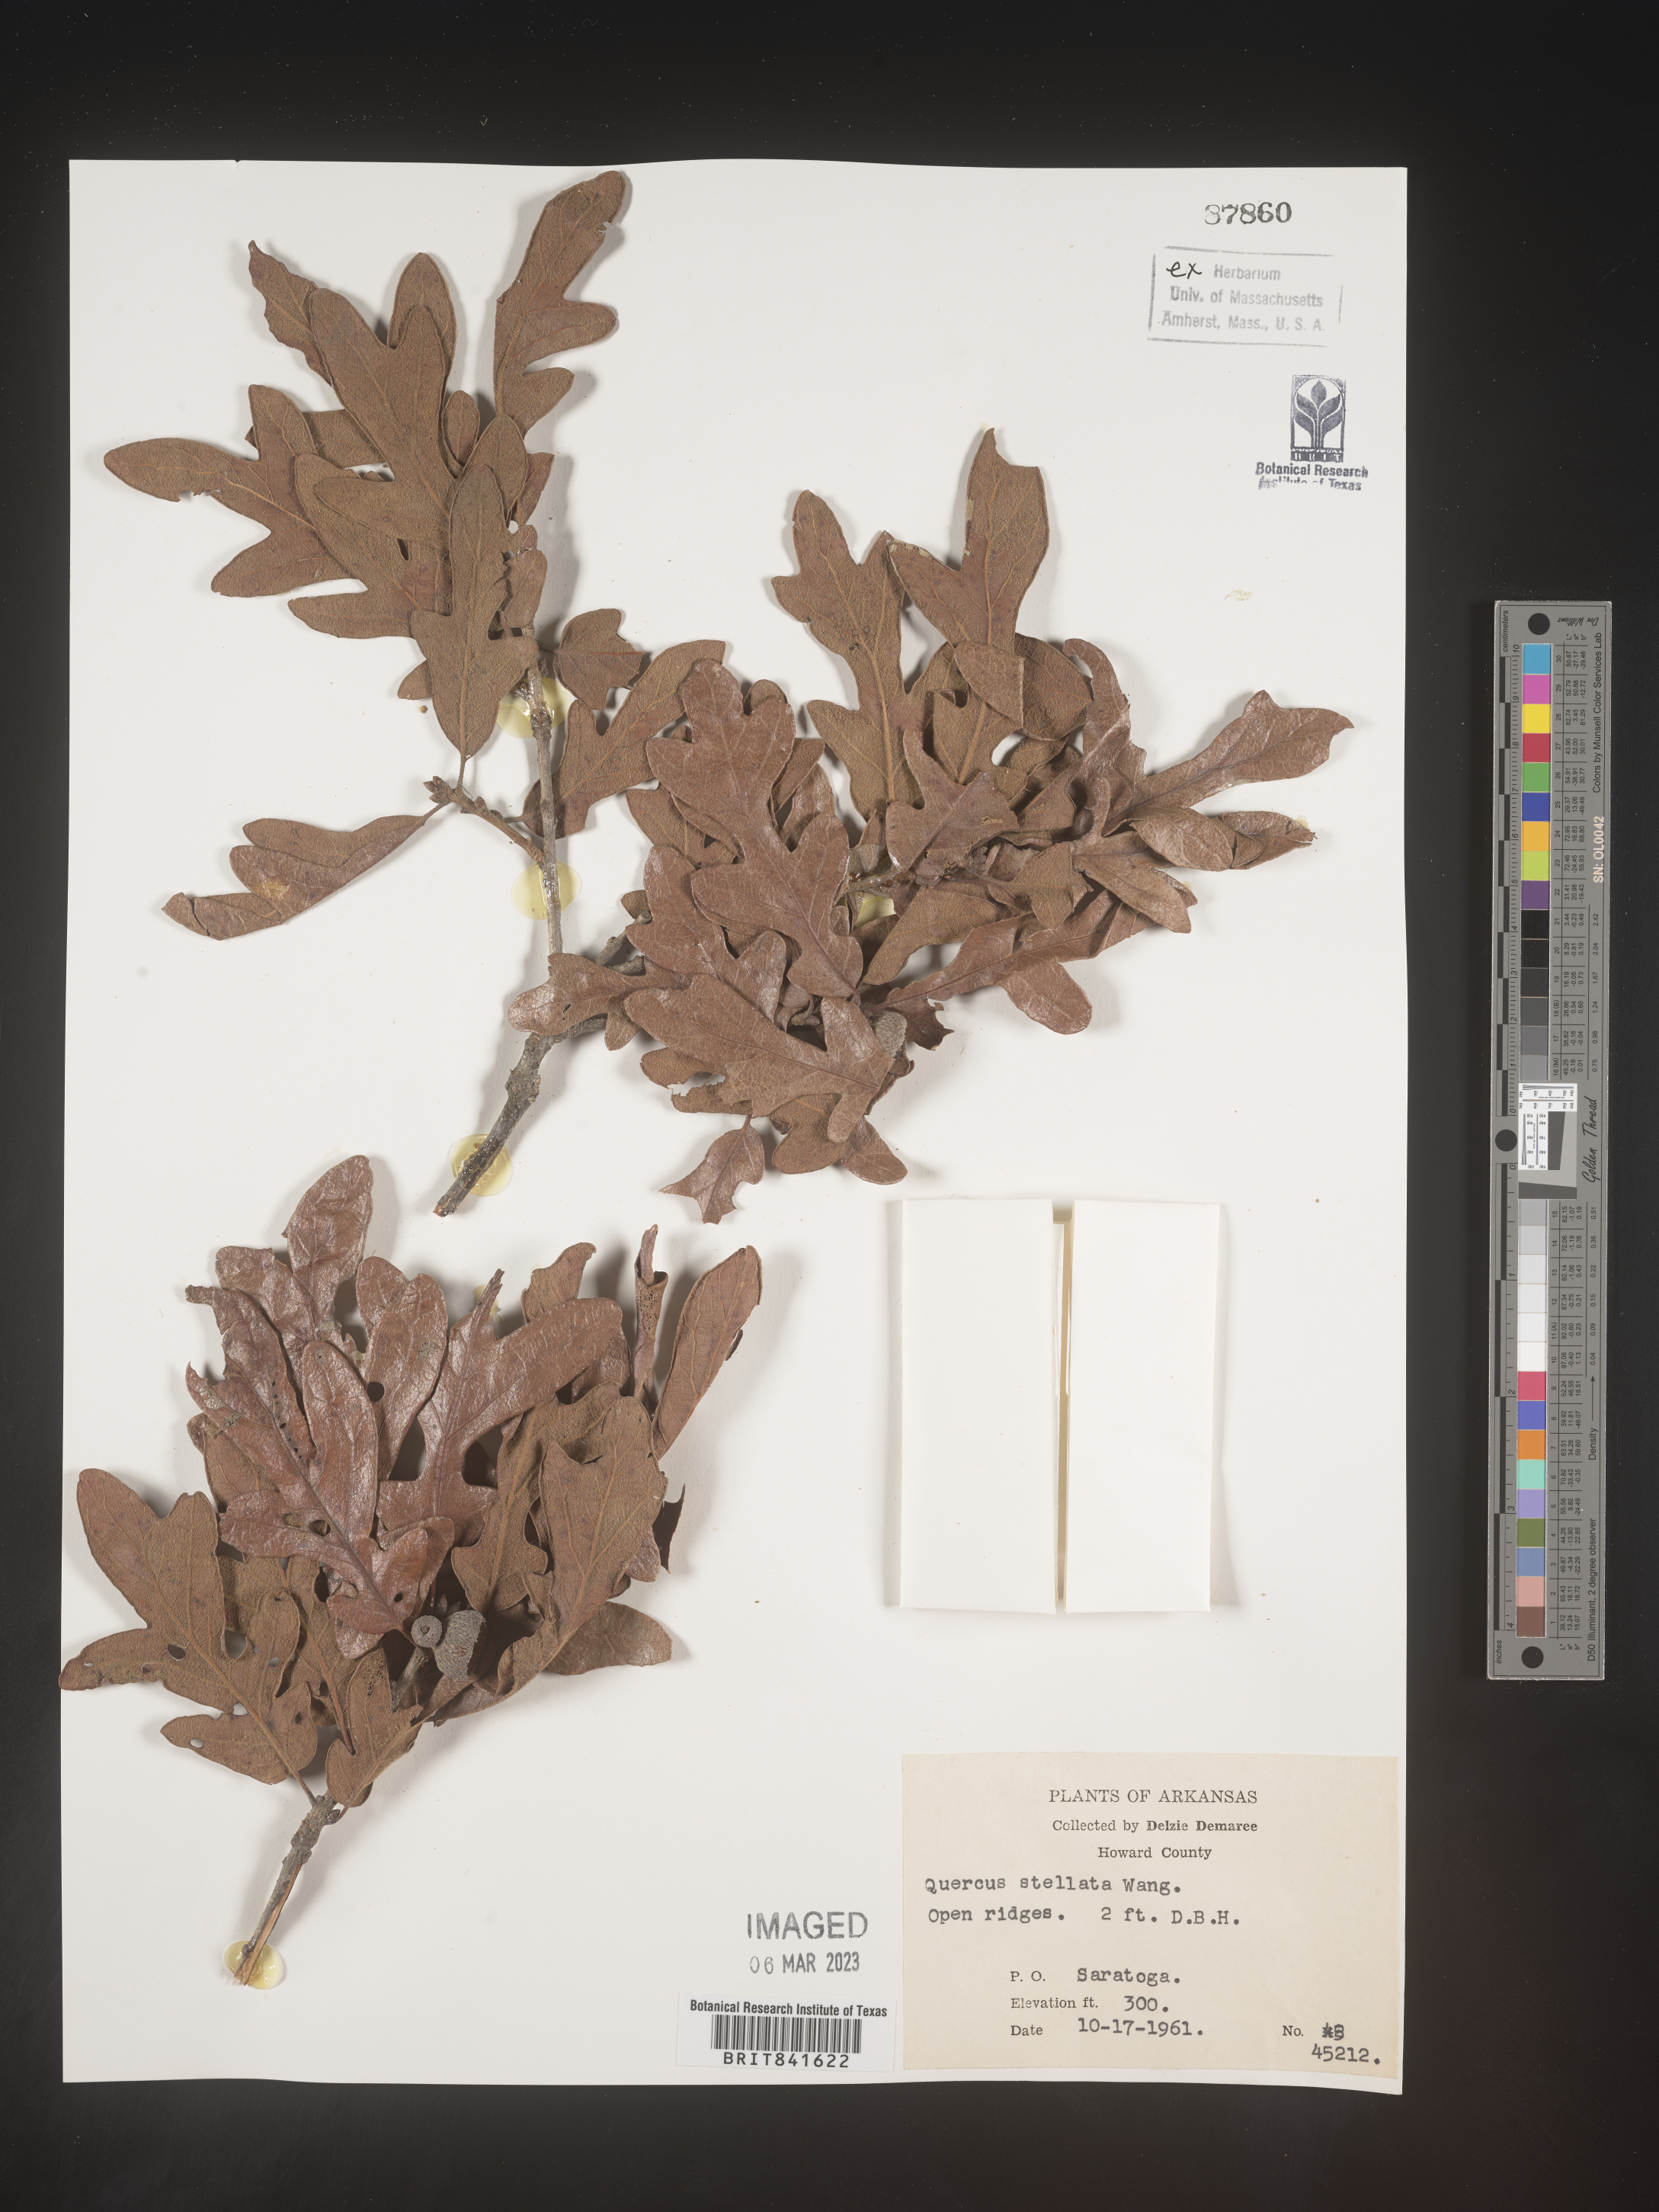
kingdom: Plantae
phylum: Tracheophyta
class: Magnoliopsida
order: Fagales
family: Fagaceae
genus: Quercus
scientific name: Quercus stellata
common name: Post oak
